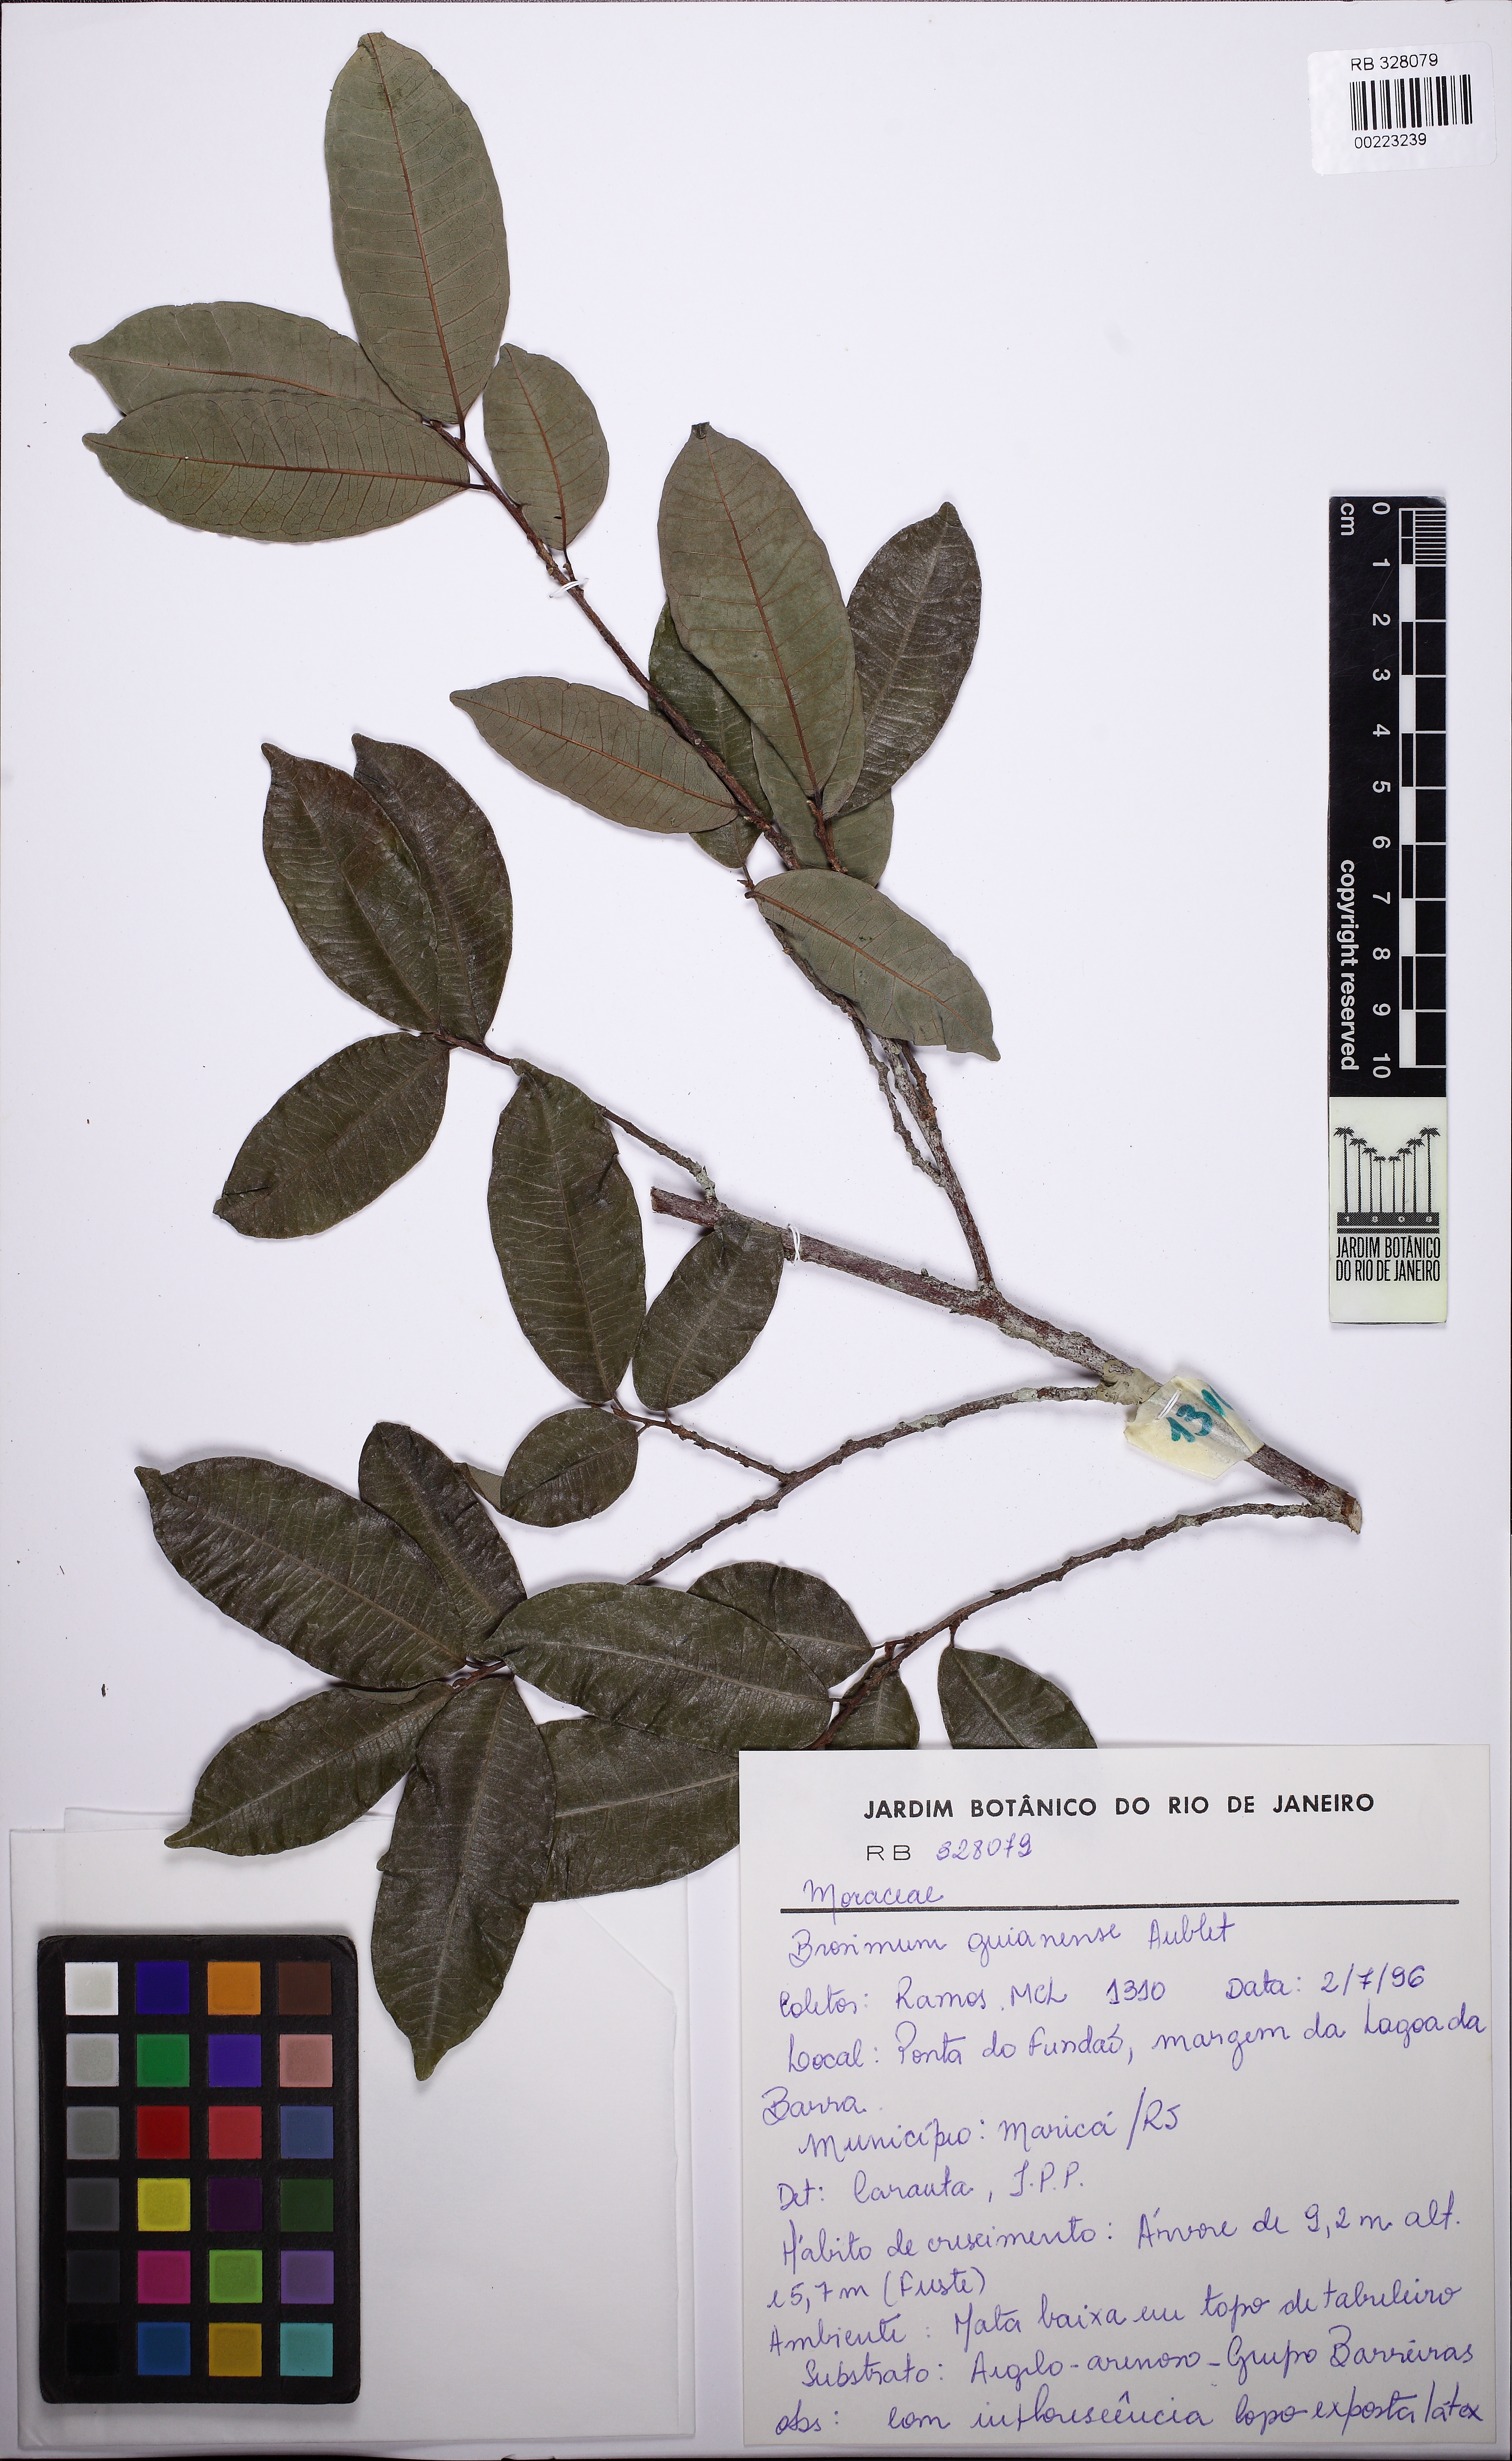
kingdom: Plantae
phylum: Tracheophyta
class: Magnoliopsida
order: Rosales
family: Moraceae
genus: Brosimum
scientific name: Brosimum guianense
